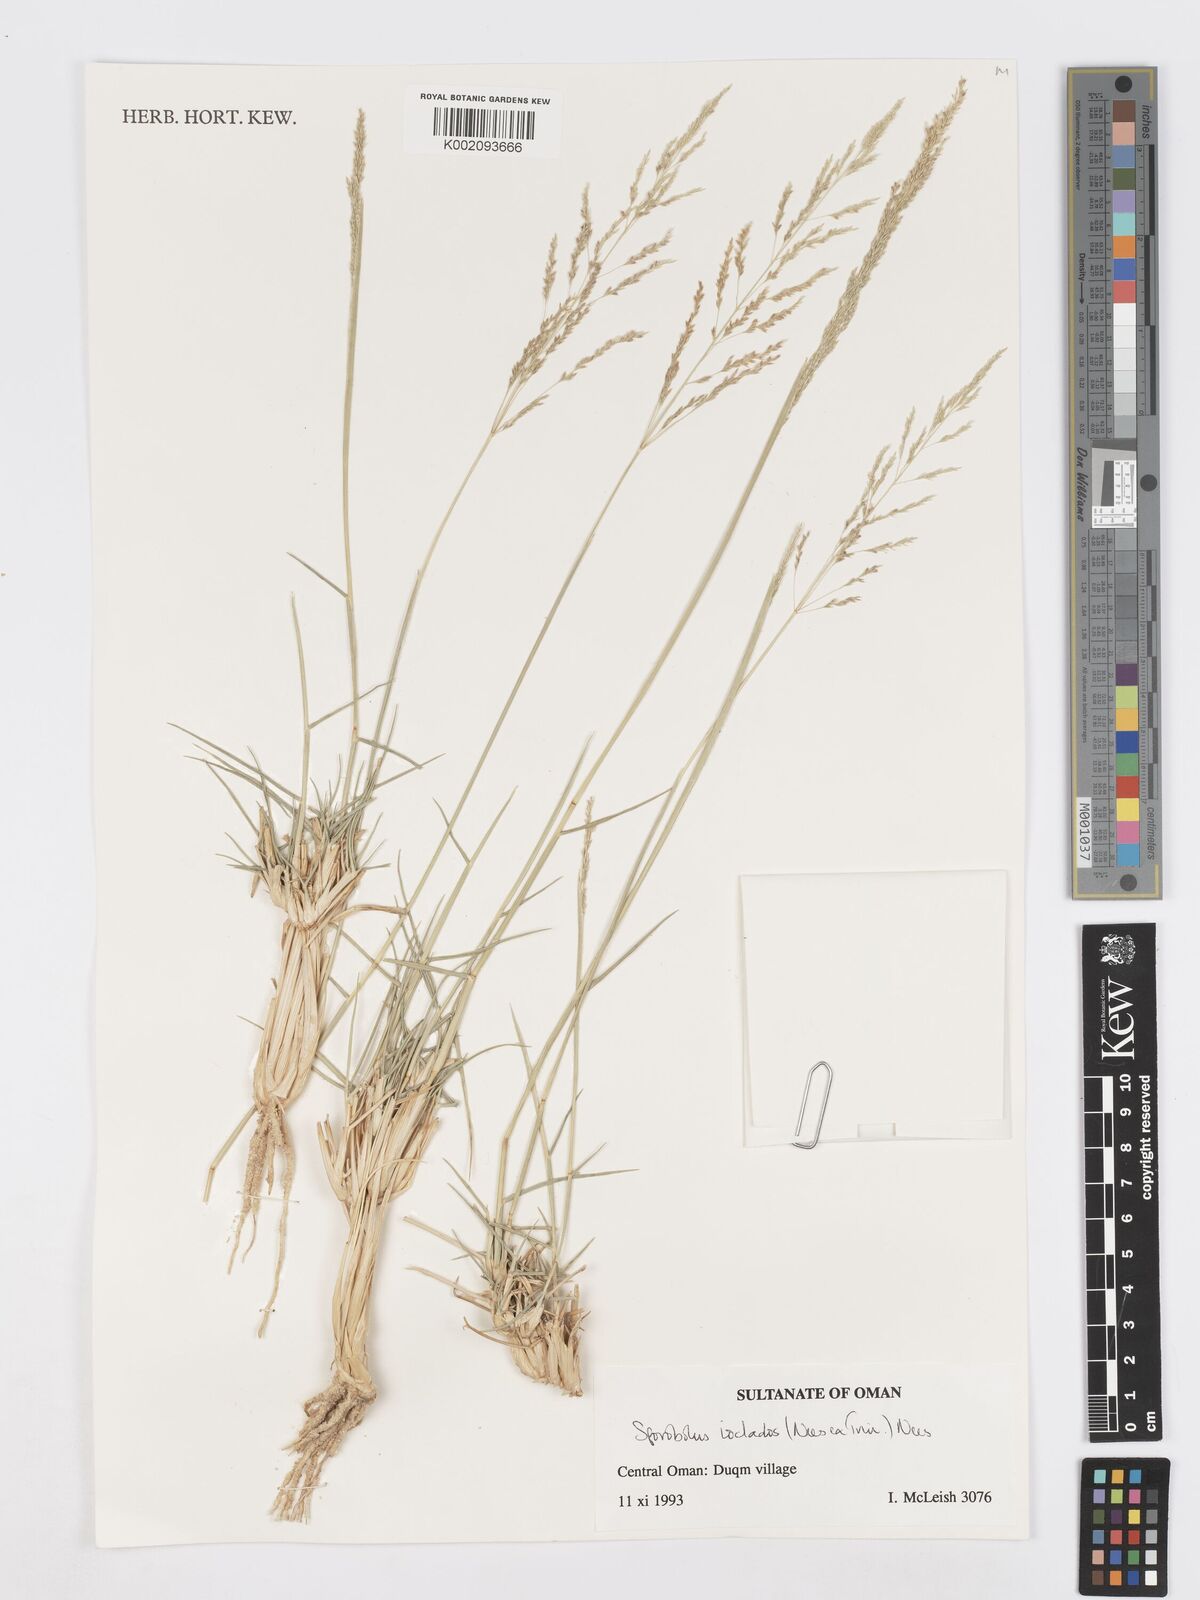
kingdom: Plantae
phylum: Tracheophyta
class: Liliopsida
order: Poales
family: Poaceae
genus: Sporobolus
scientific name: Sporobolus ioclados
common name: Pan dropseed
